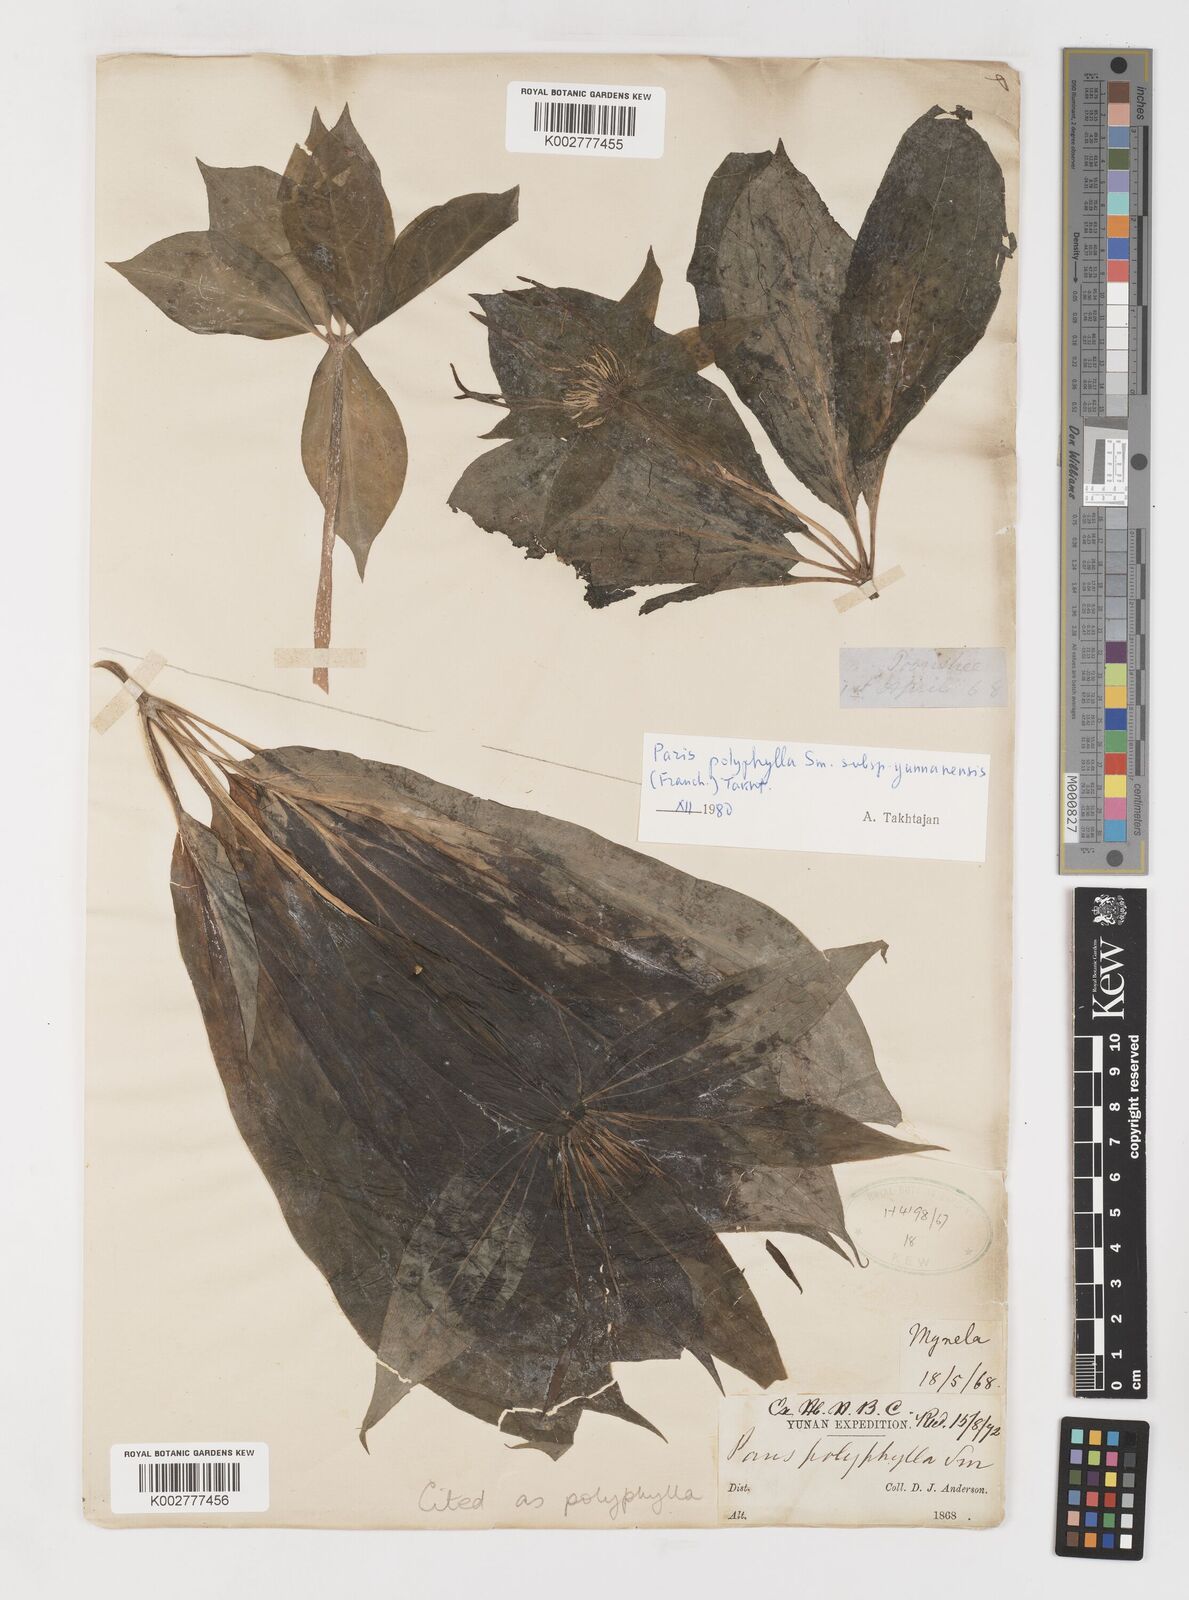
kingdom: Plantae
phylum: Tracheophyta
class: Liliopsida
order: Liliales
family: Melanthiaceae
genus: Paris
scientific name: Paris polyphylla
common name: Love apple
